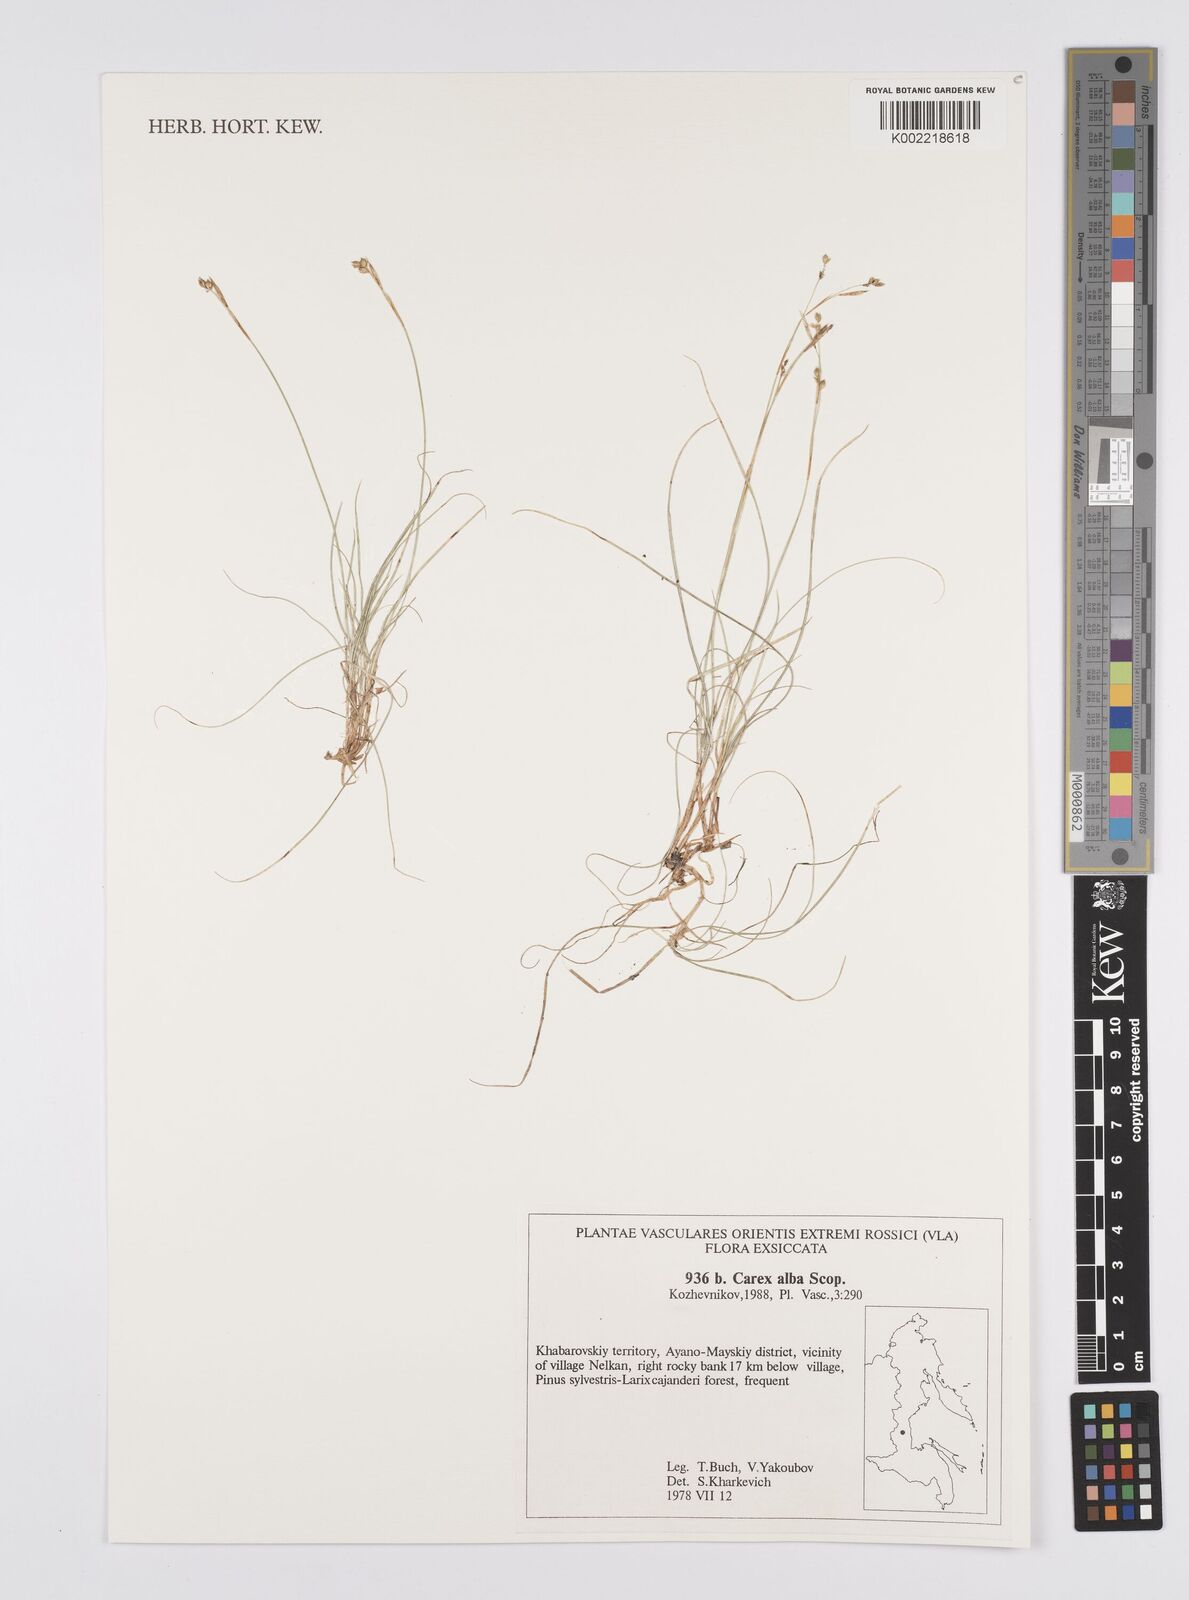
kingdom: Plantae
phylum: Tracheophyta
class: Liliopsida
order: Poales
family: Cyperaceae
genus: Carex
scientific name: Carex alba
